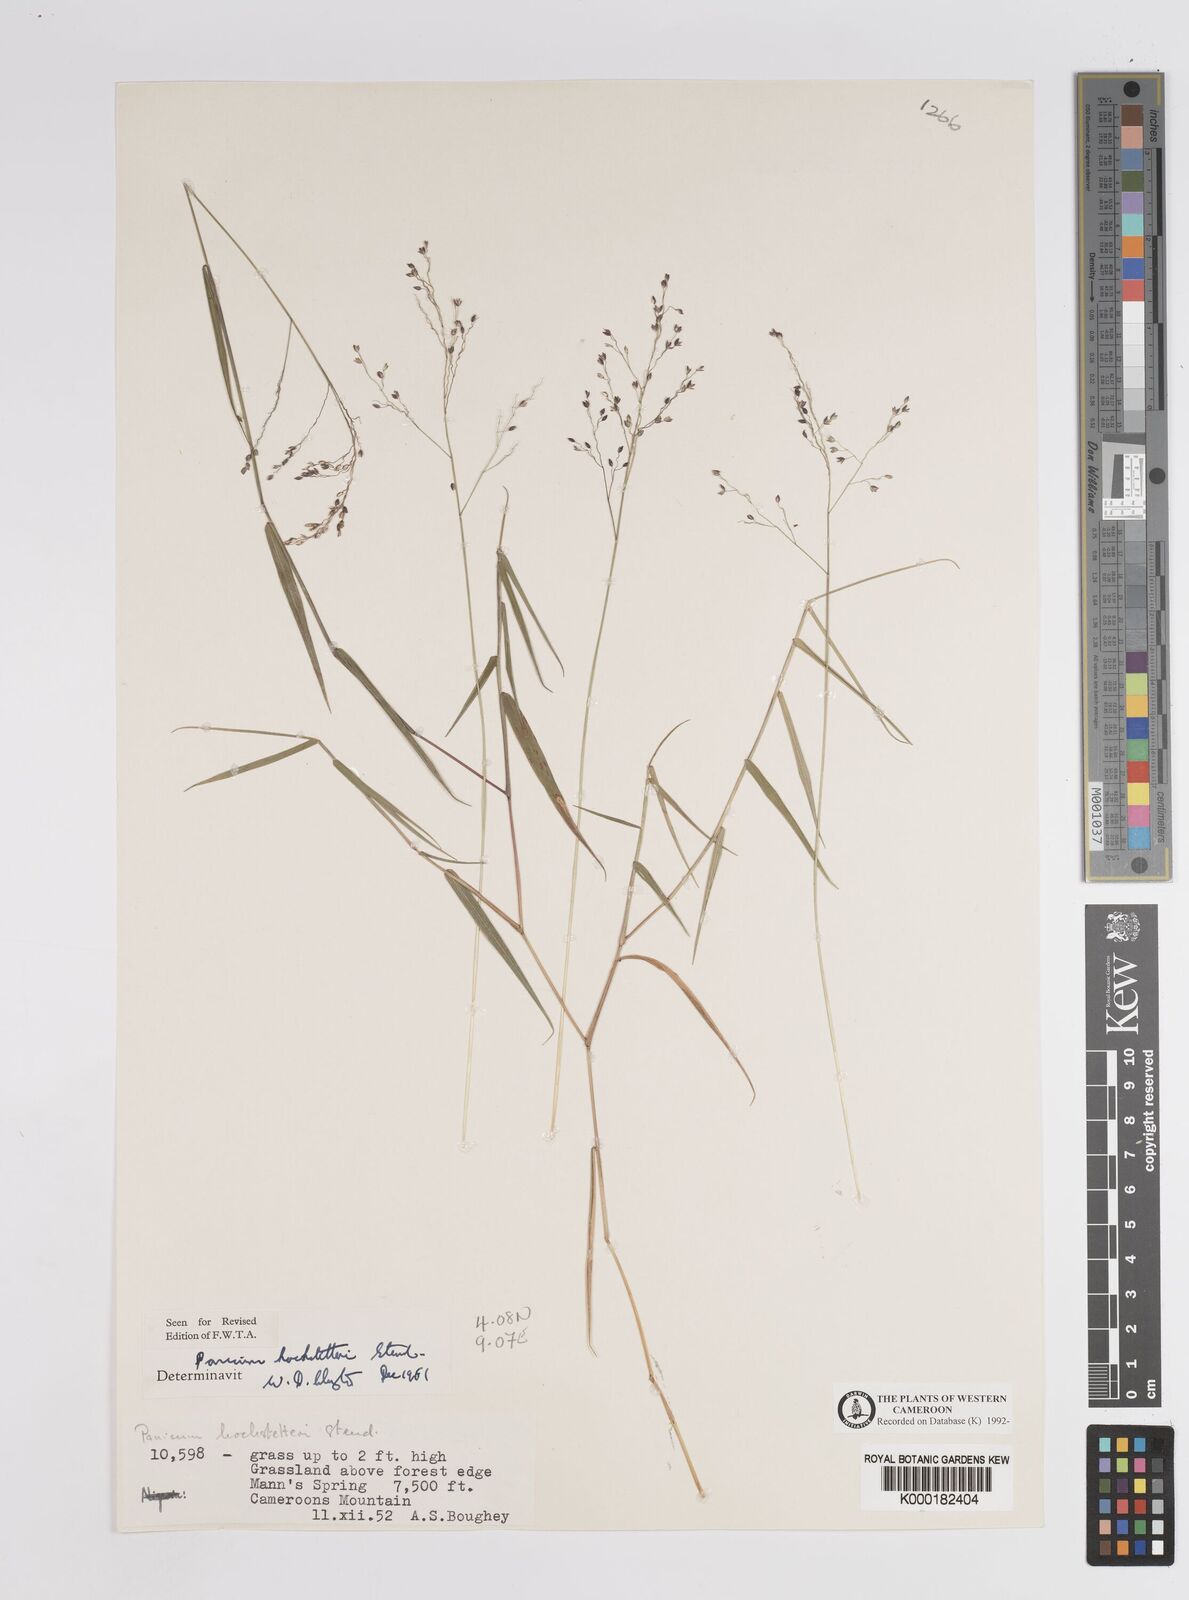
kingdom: Plantae
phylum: Tracheophyta
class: Liliopsida
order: Poales
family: Poaceae
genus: Panicum
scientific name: Panicum hochstetteri
